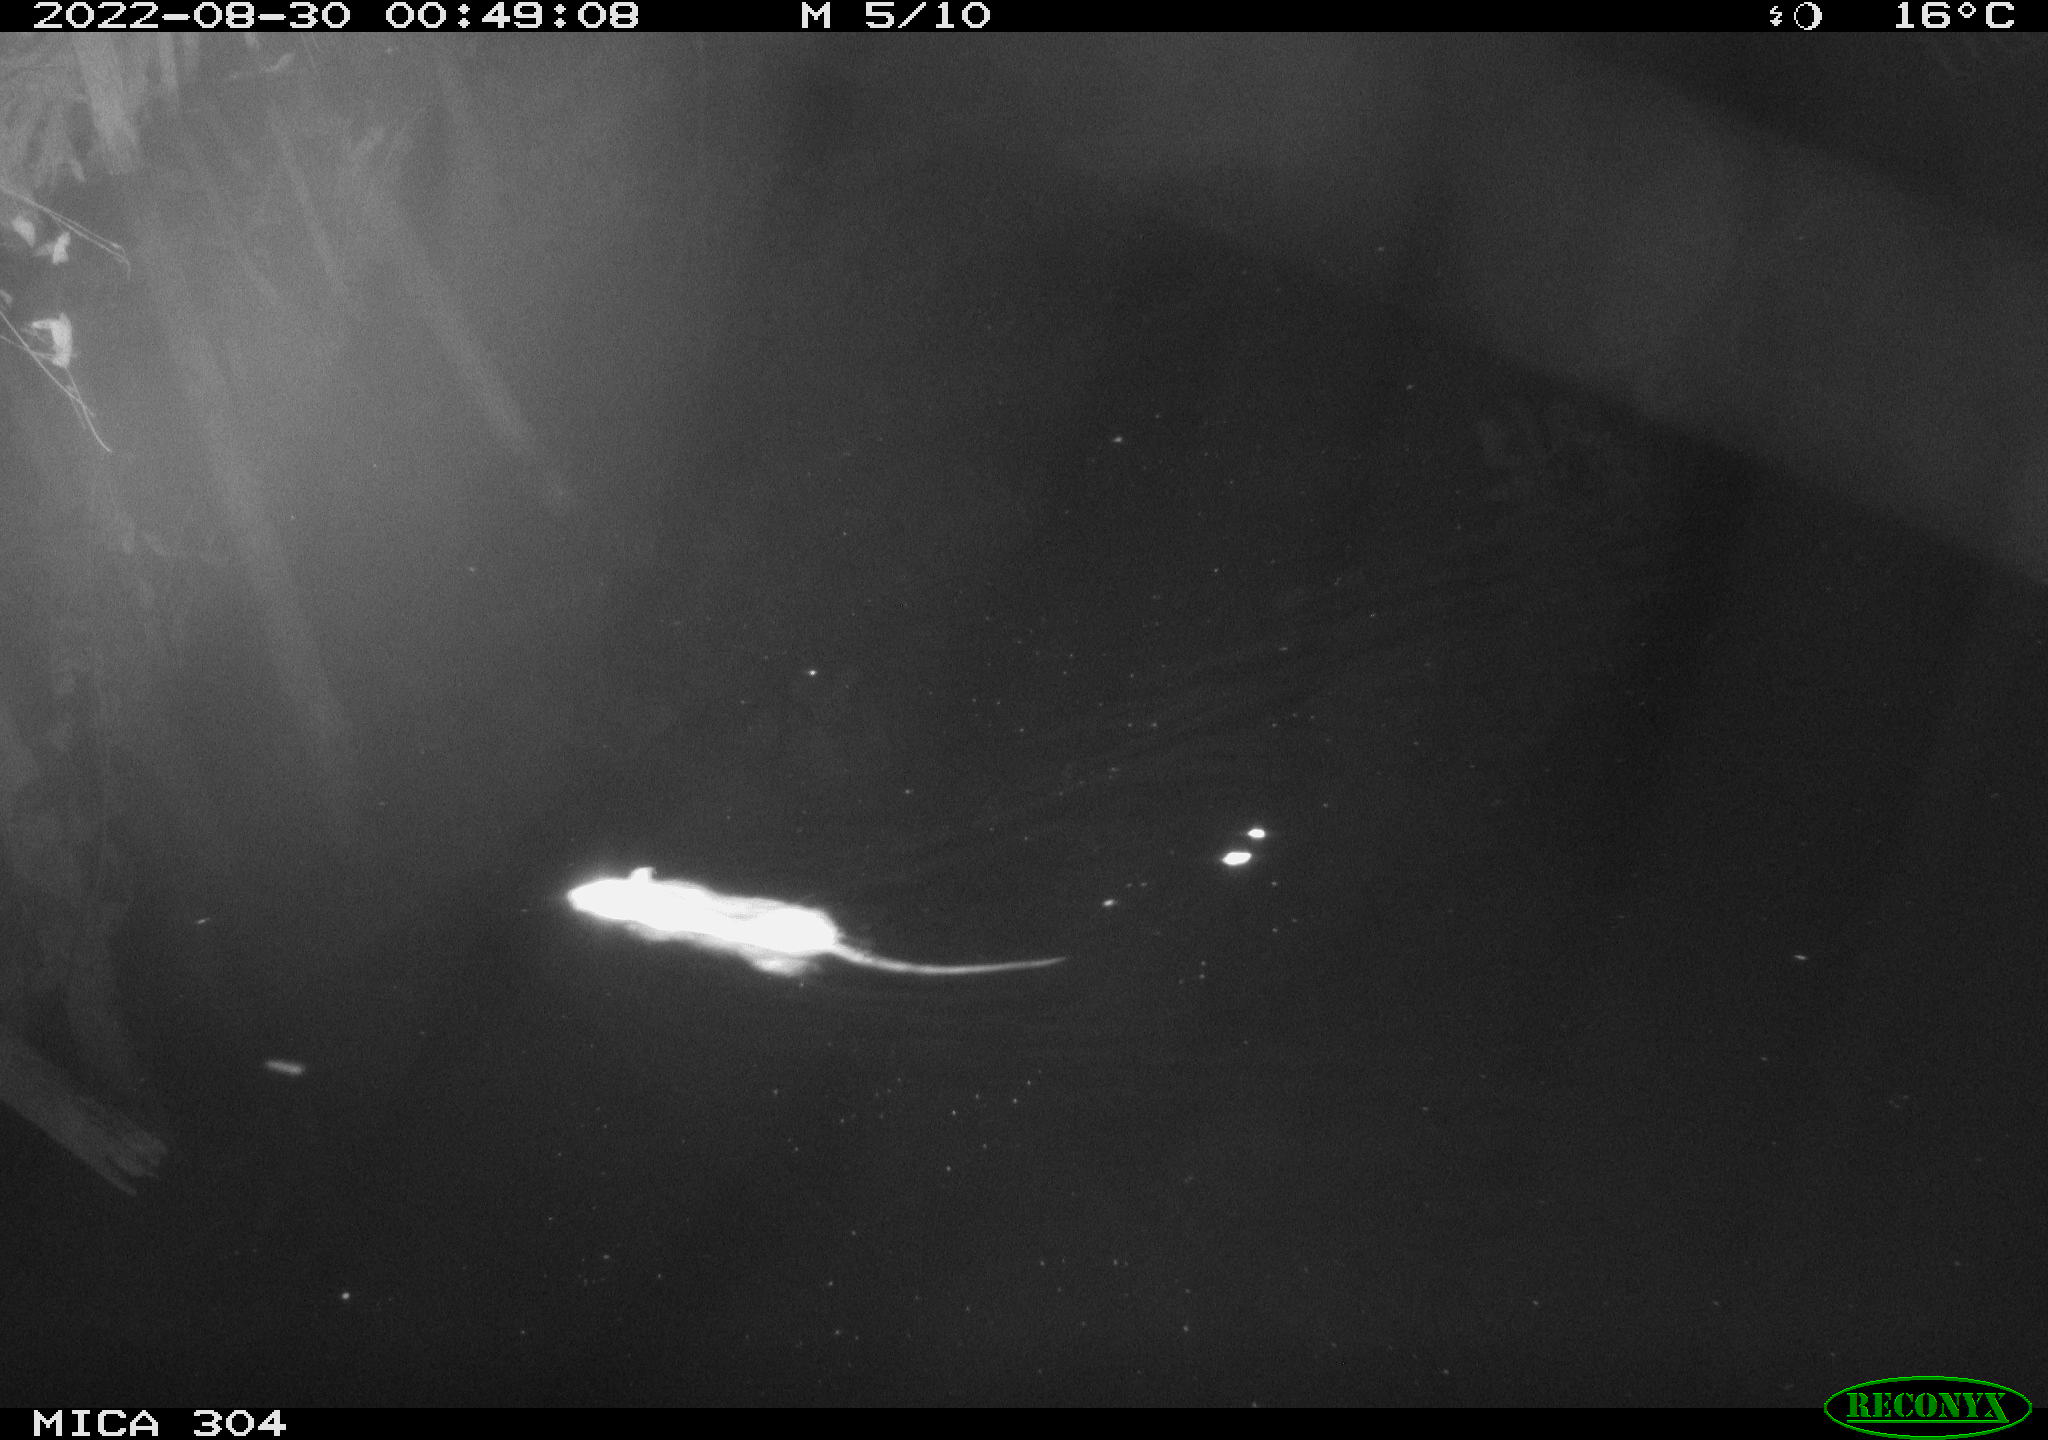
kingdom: Animalia
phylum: Chordata
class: Mammalia
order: Rodentia
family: Muridae
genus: Rattus
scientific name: Rattus norvegicus
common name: Brown rat
